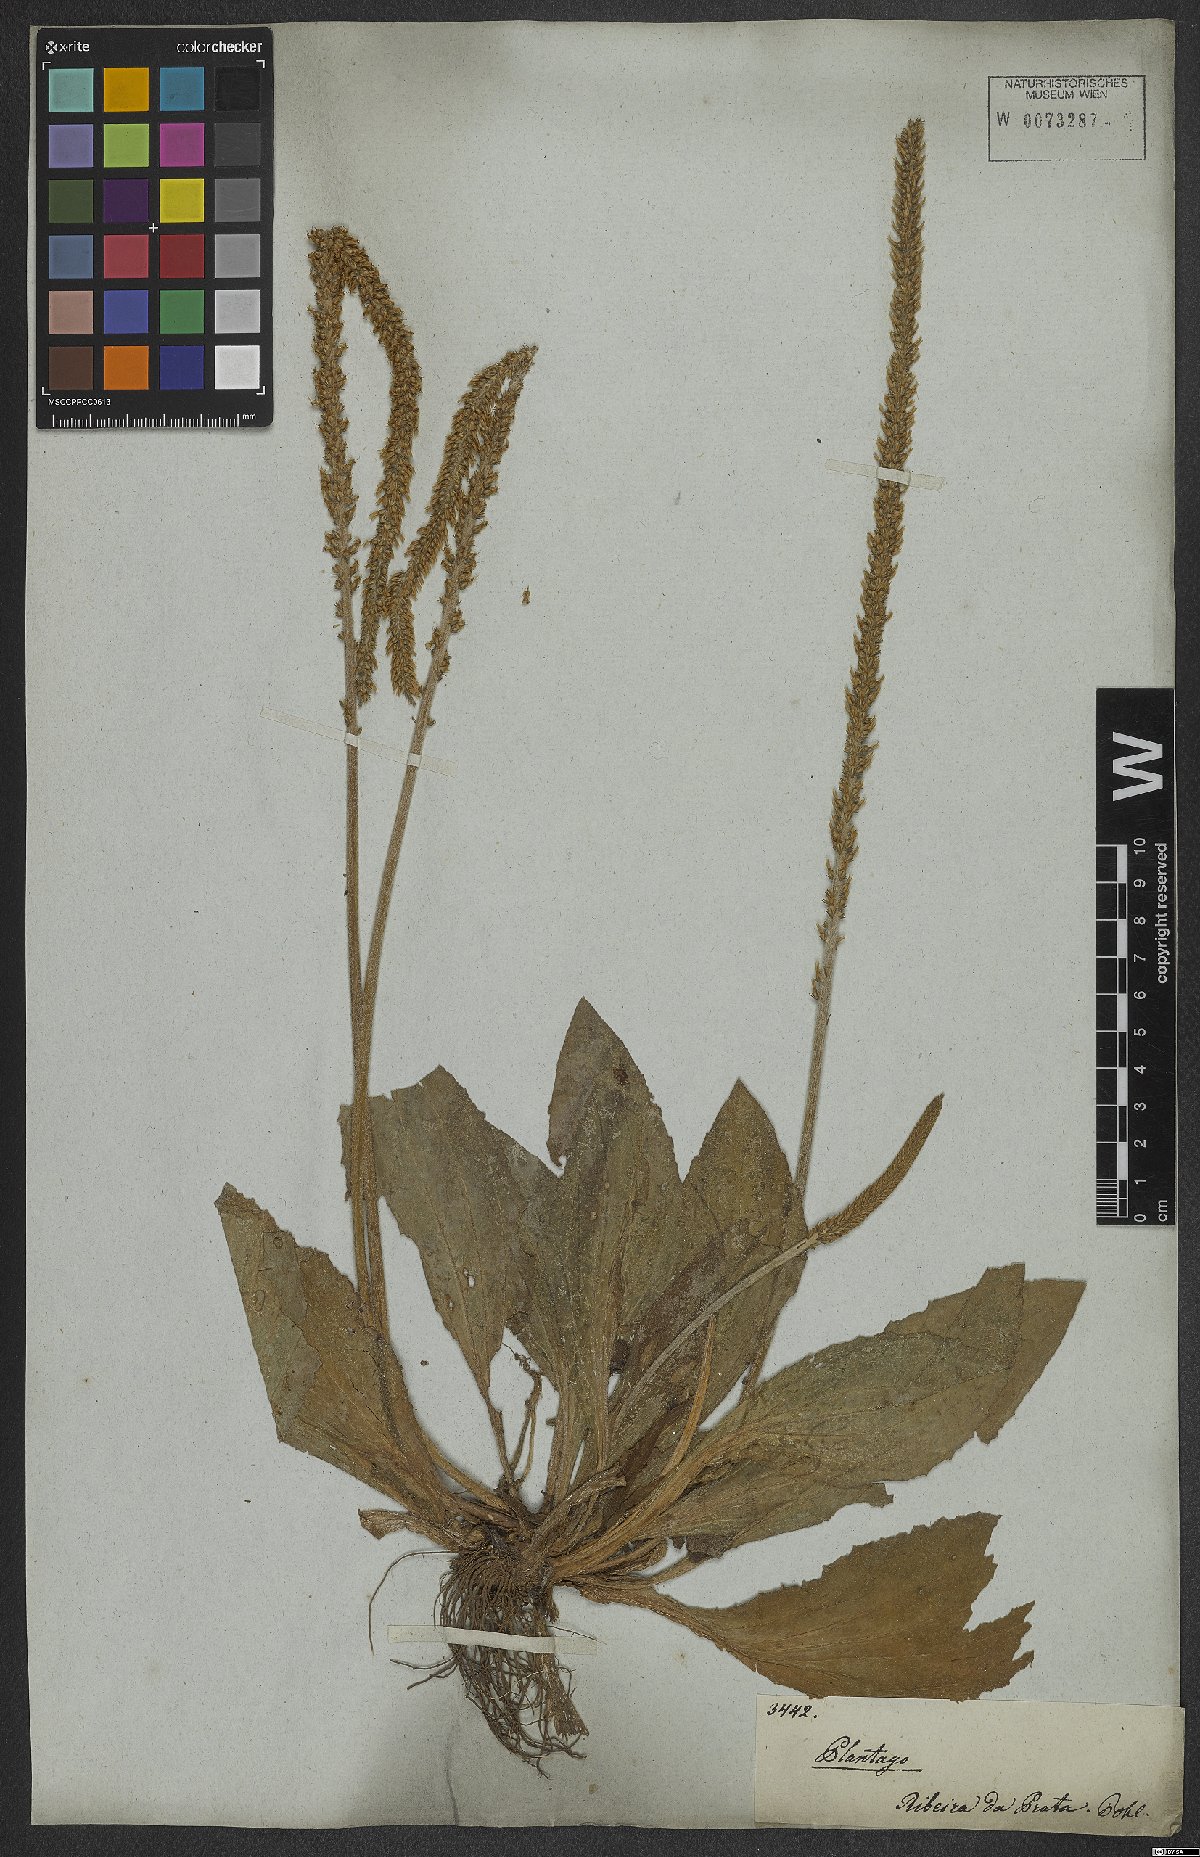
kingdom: Plantae
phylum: Tracheophyta
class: Magnoliopsida
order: Lamiales
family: Plantaginaceae
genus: Plantago
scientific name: Plantago guilleminiana
